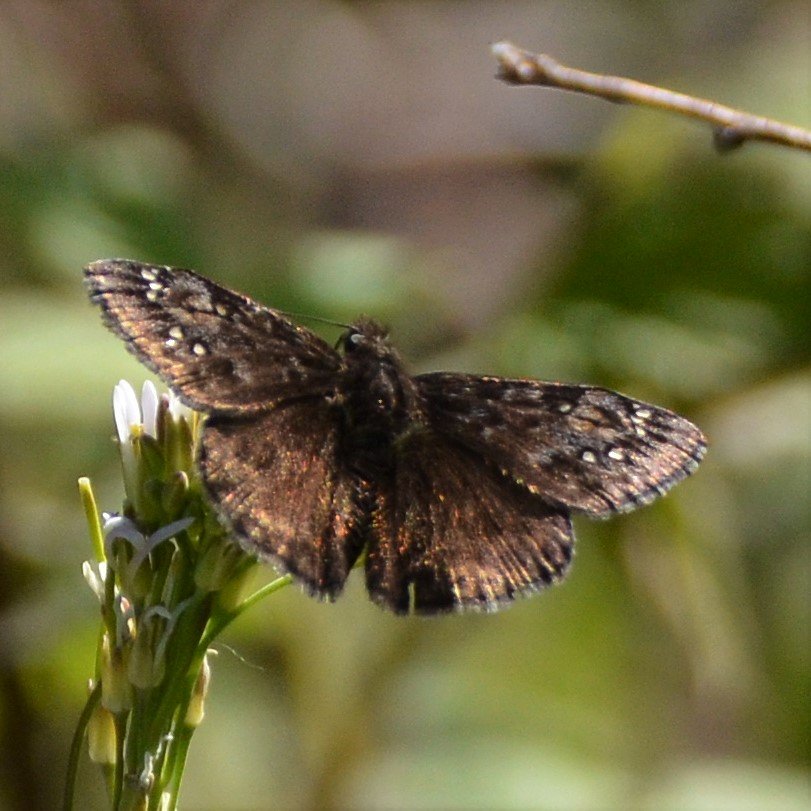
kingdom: Animalia
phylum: Arthropoda
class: Insecta
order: Lepidoptera
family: Hesperiidae
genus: Gesta
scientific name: Gesta
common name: Juvenal's Duskywing
